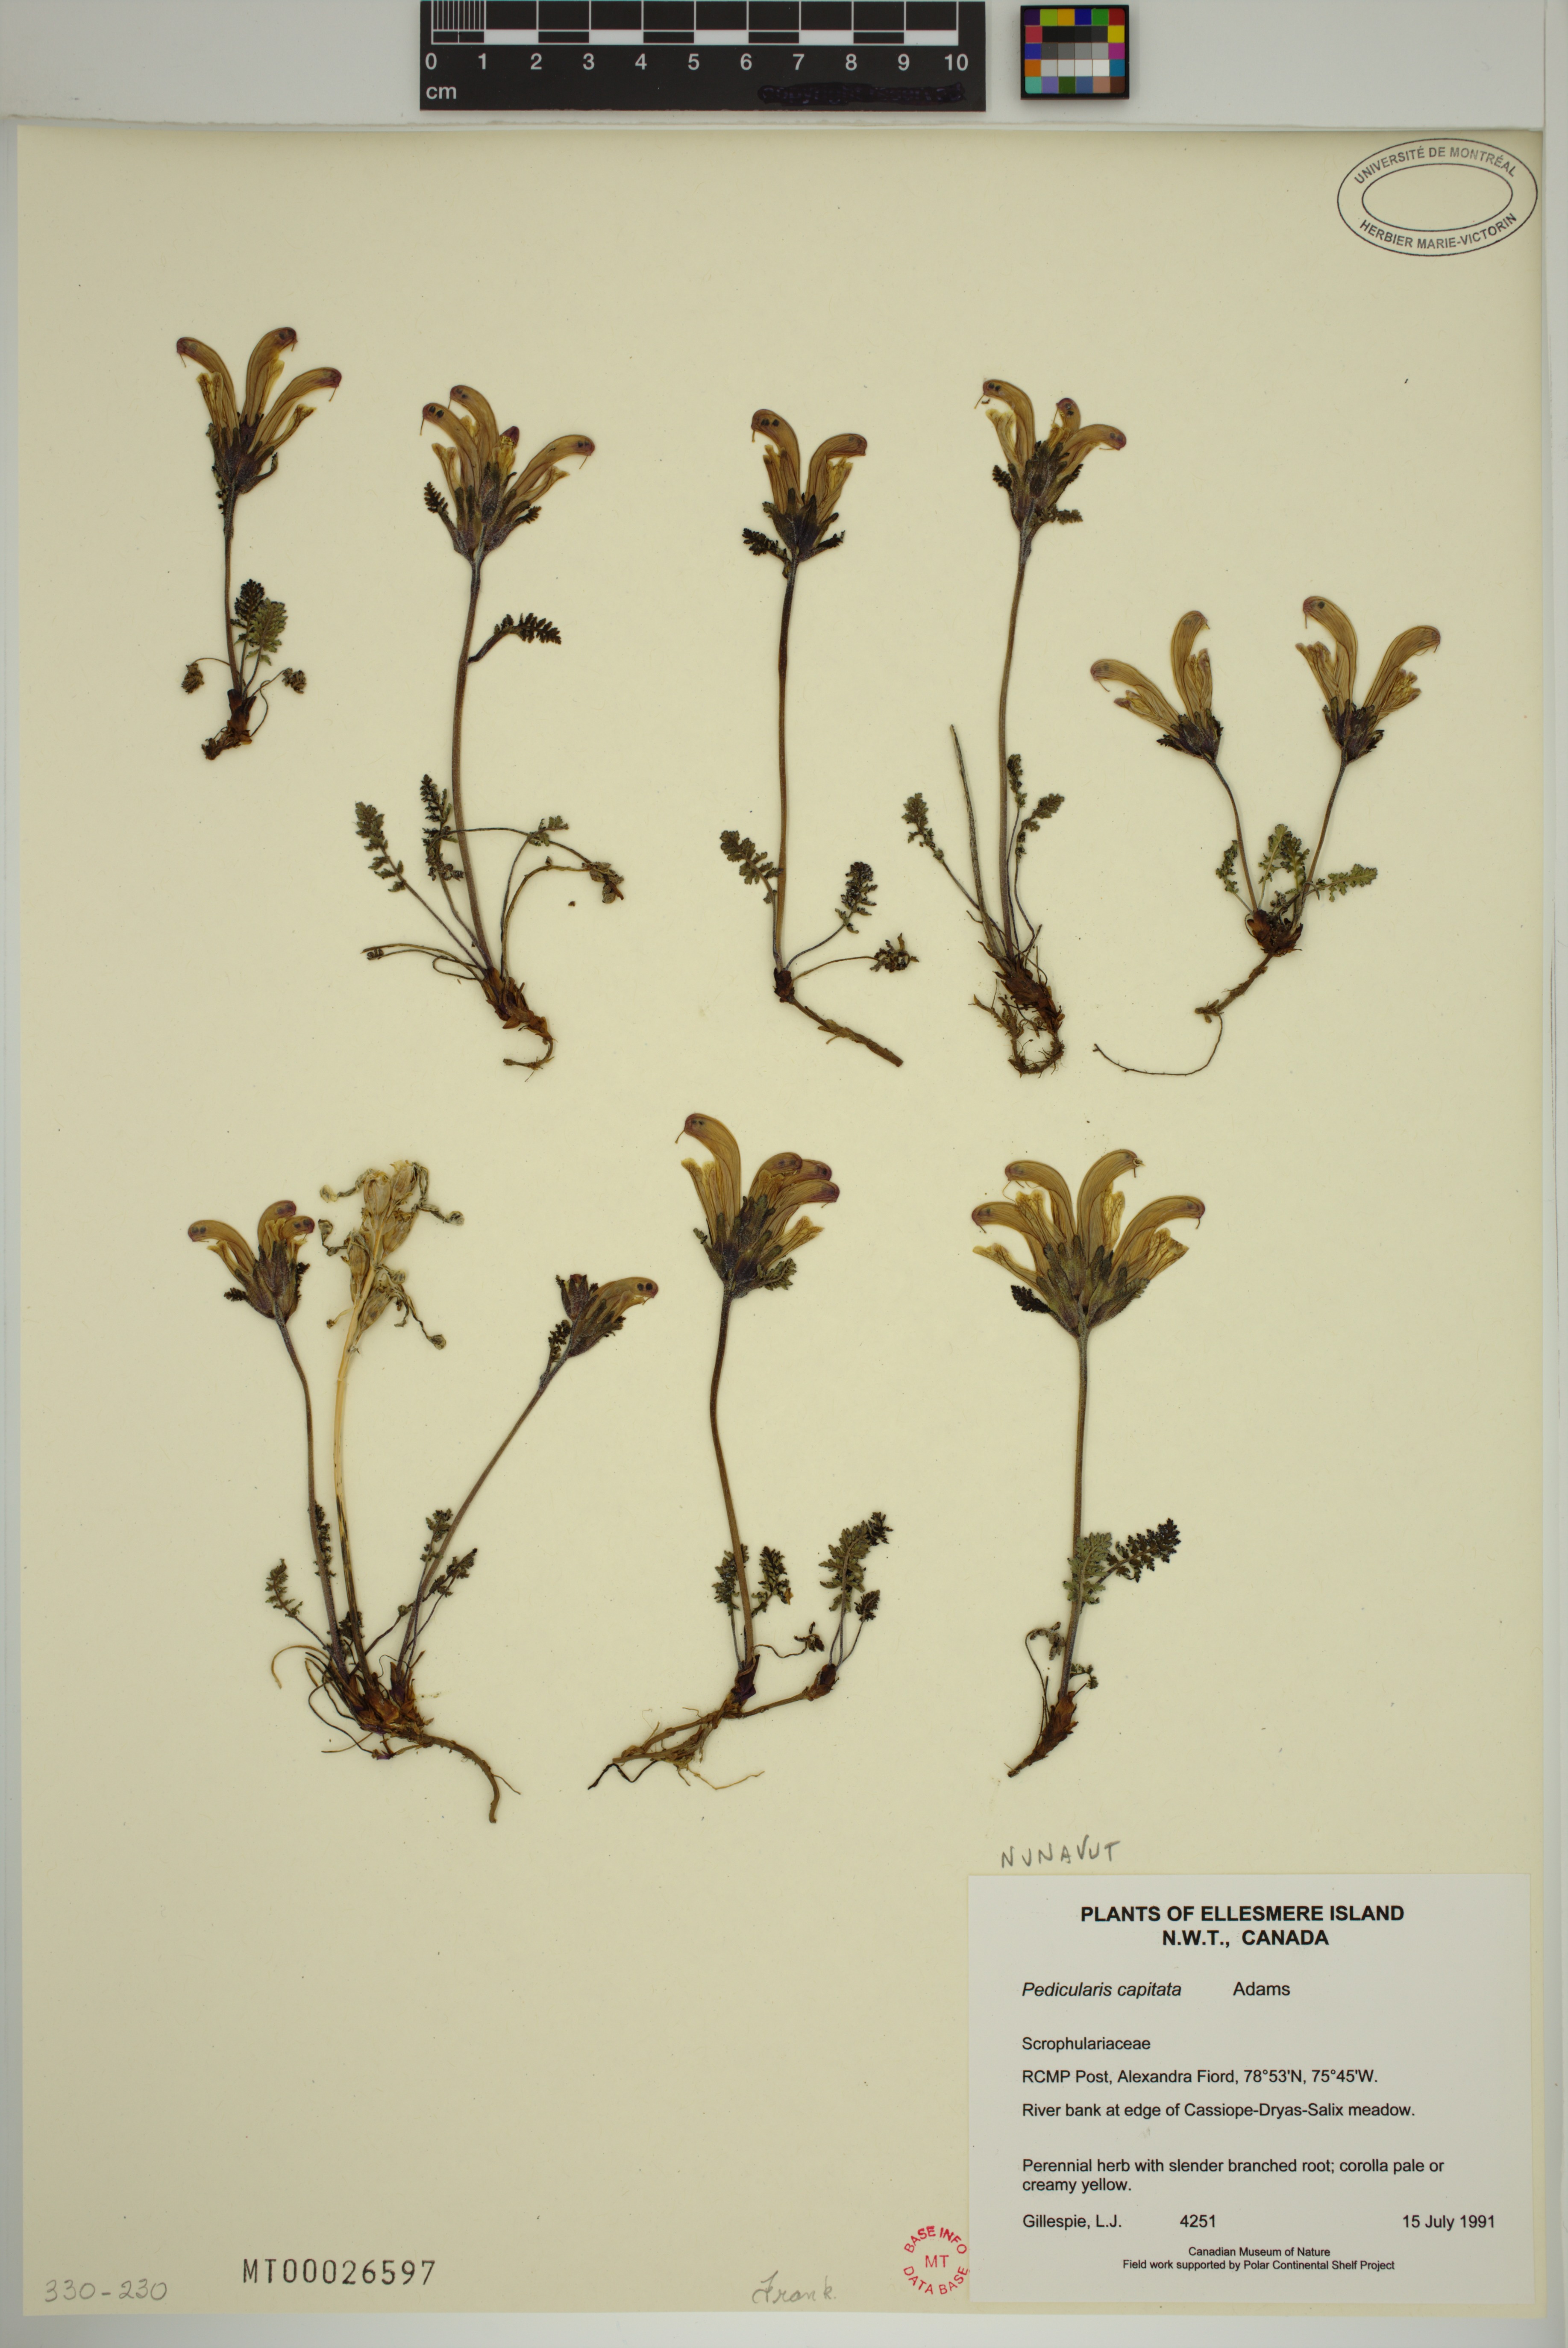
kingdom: Plantae
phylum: Tracheophyta
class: Magnoliopsida
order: Lamiales
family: Orobanchaceae
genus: Pedicularis
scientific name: Pedicularis capitata
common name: Capitate lousewort
